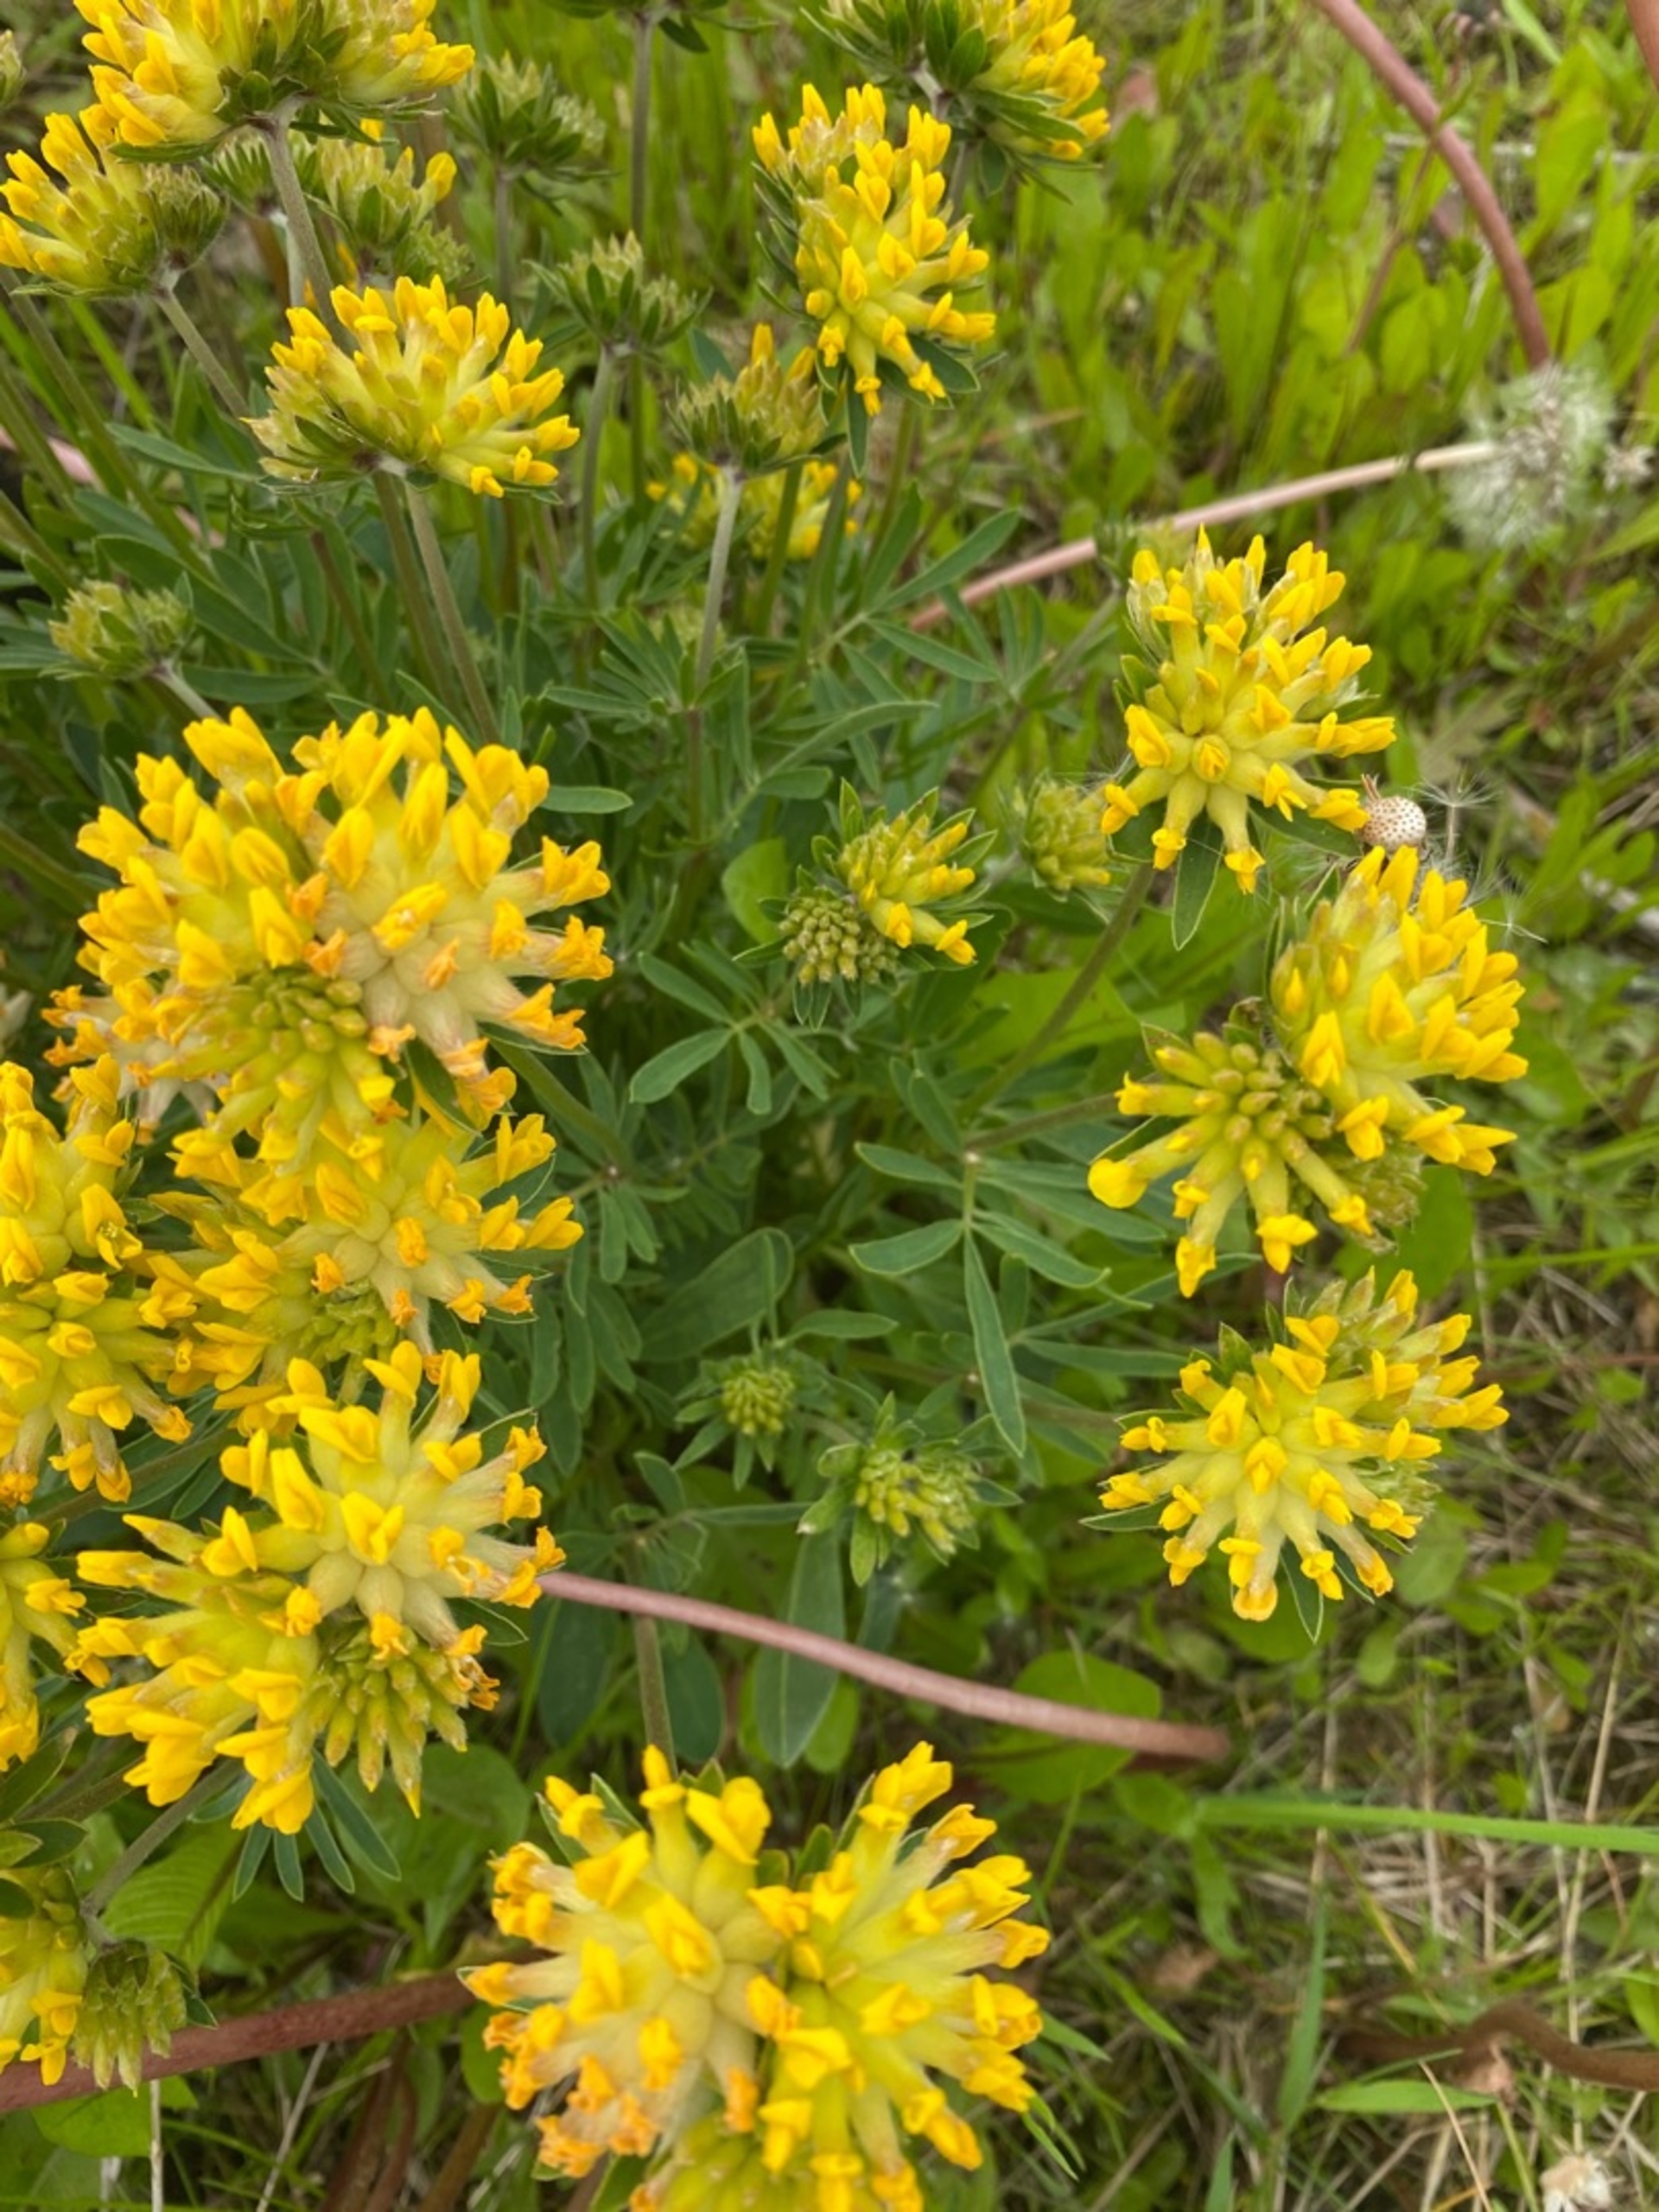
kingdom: Plantae
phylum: Tracheophyta
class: Magnoliopsida
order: Fabales
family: Fabaceae
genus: Anthyllis
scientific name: Anthyllis vulneraria
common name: Rundbælg
